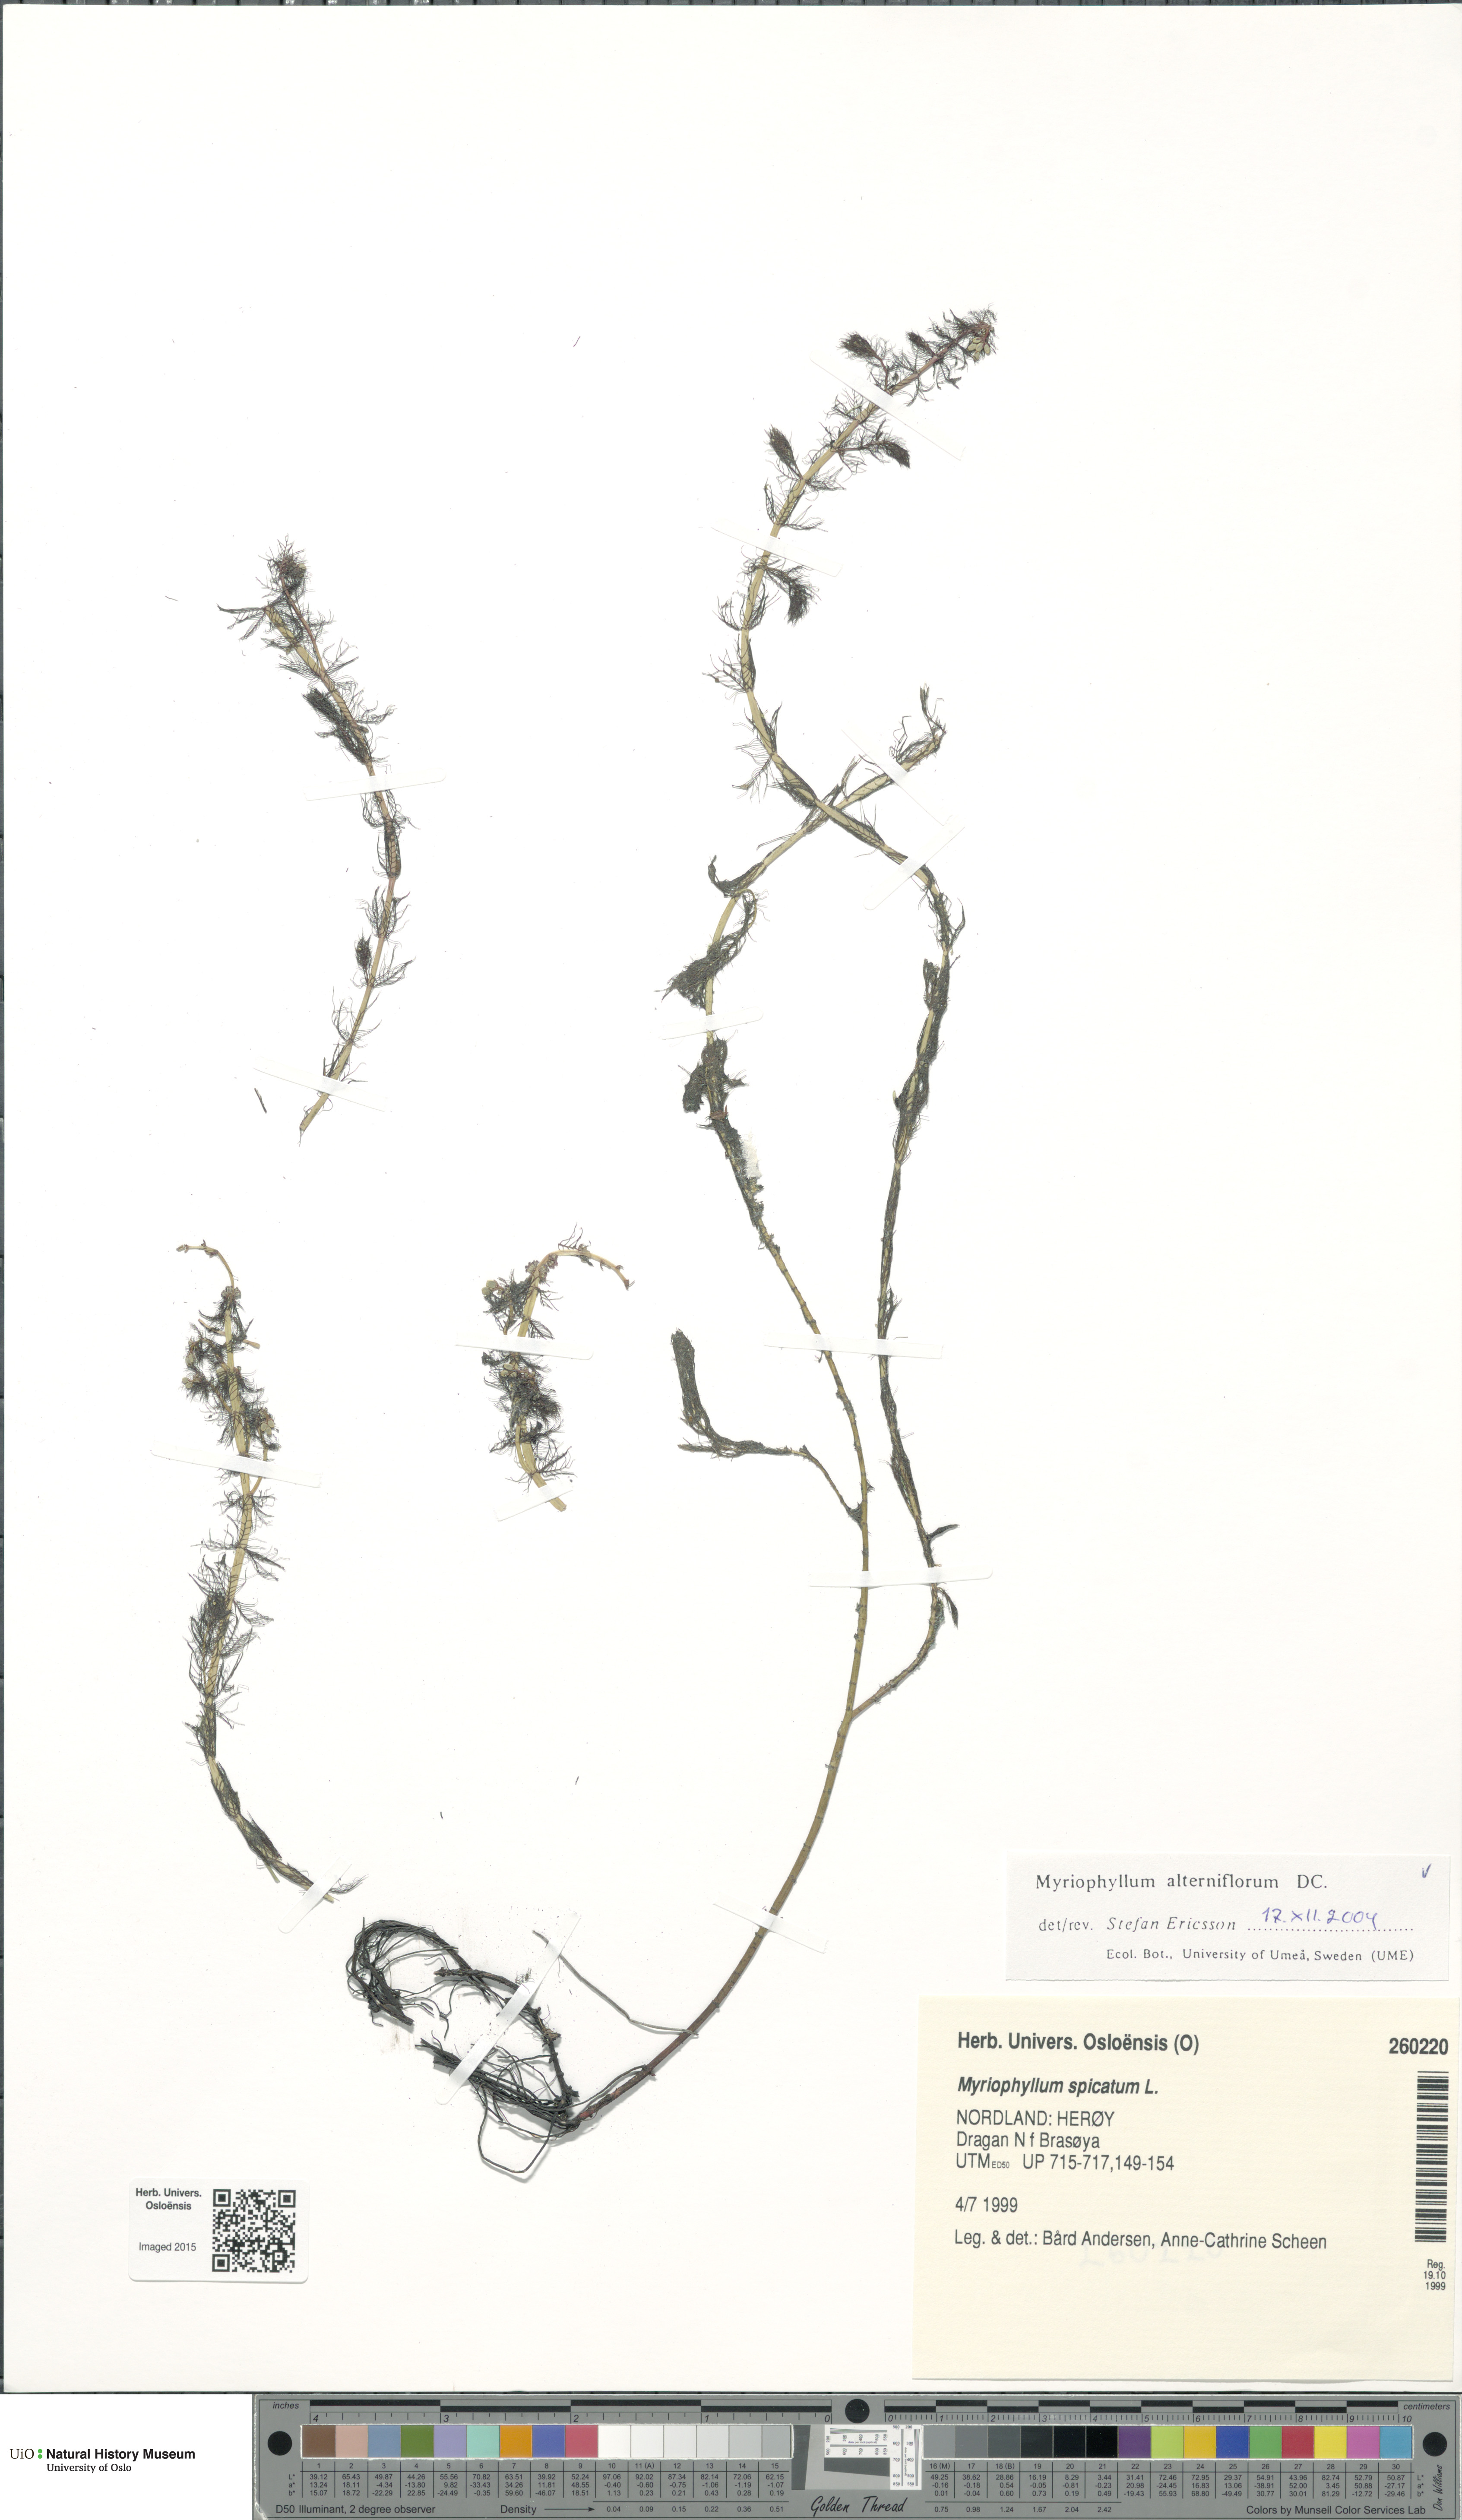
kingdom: Plantae
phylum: Tracheophyta
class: Magnoliopsida
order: Saxifragales
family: Haloragaceae
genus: Myriophyllum
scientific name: Myriophyllum alterniflorum
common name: Alternate water-milfoil
